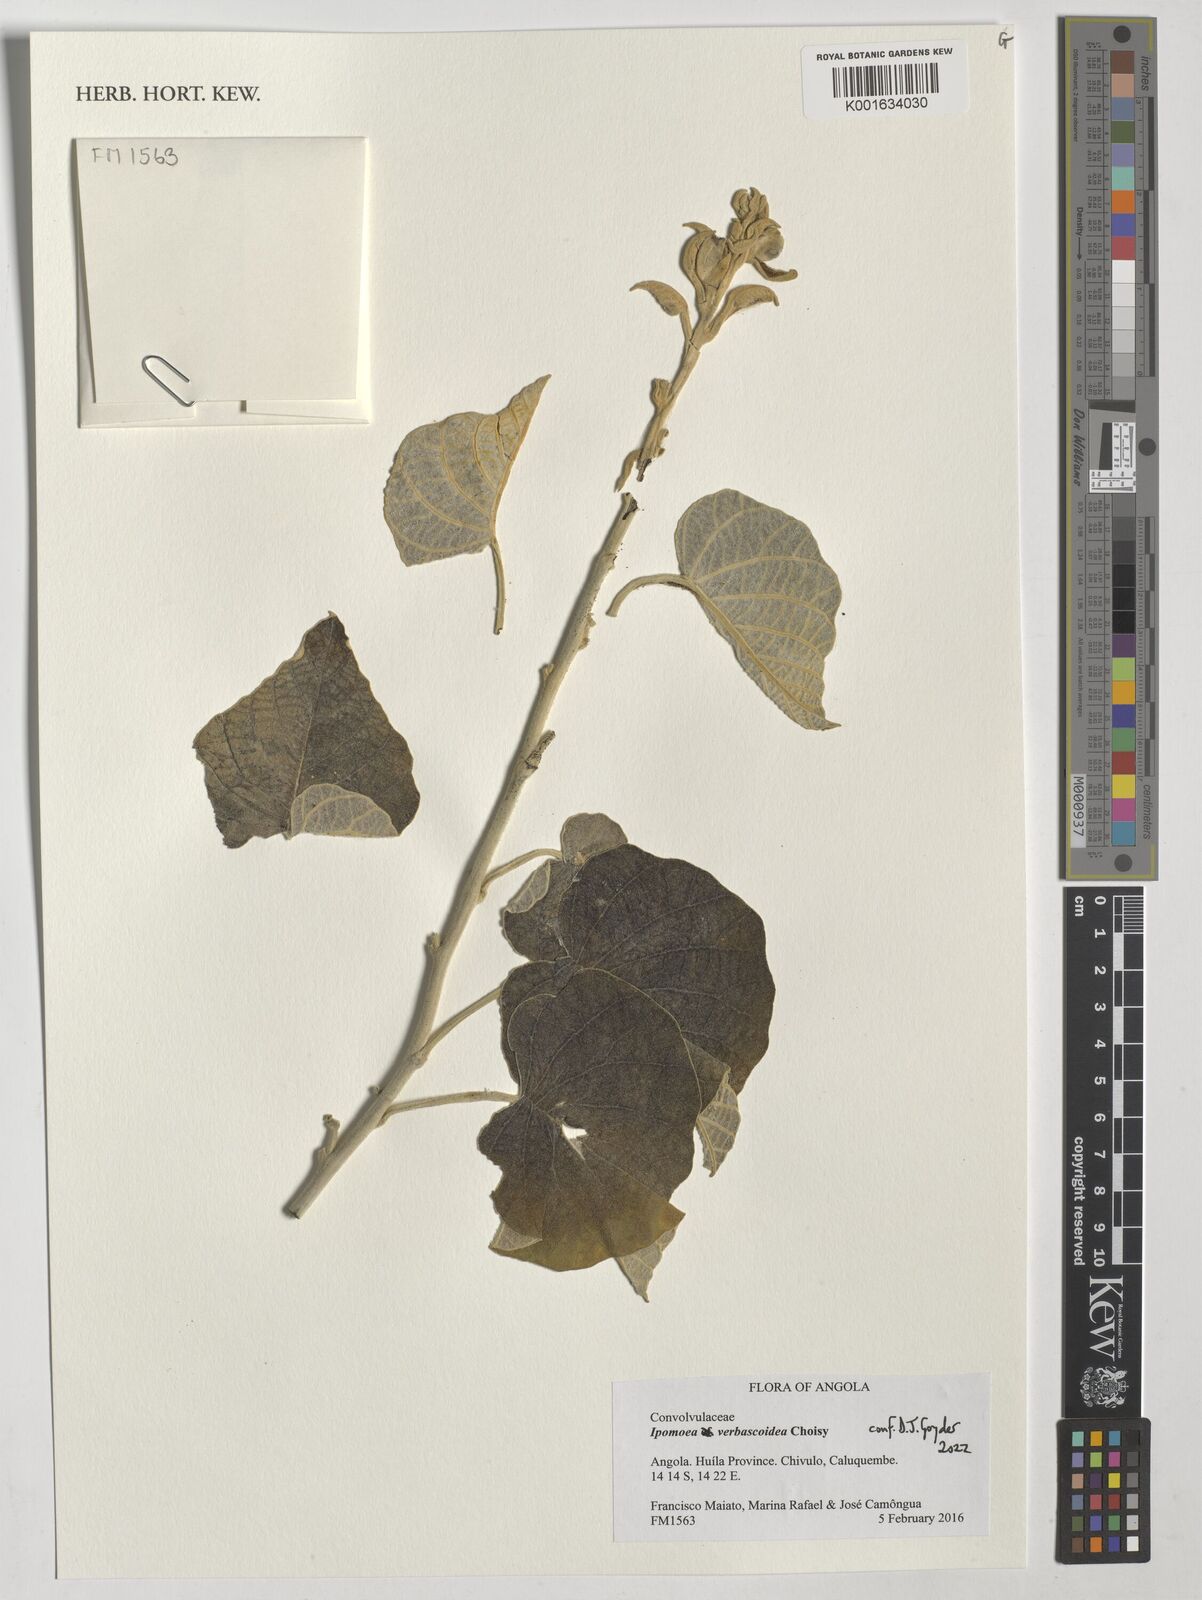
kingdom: Plantae
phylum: Tracheophyta
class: Magnoliopsida
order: Solanales
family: Convolvulaceae
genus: Ipomoea
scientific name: Ipomoea verbascoidea
